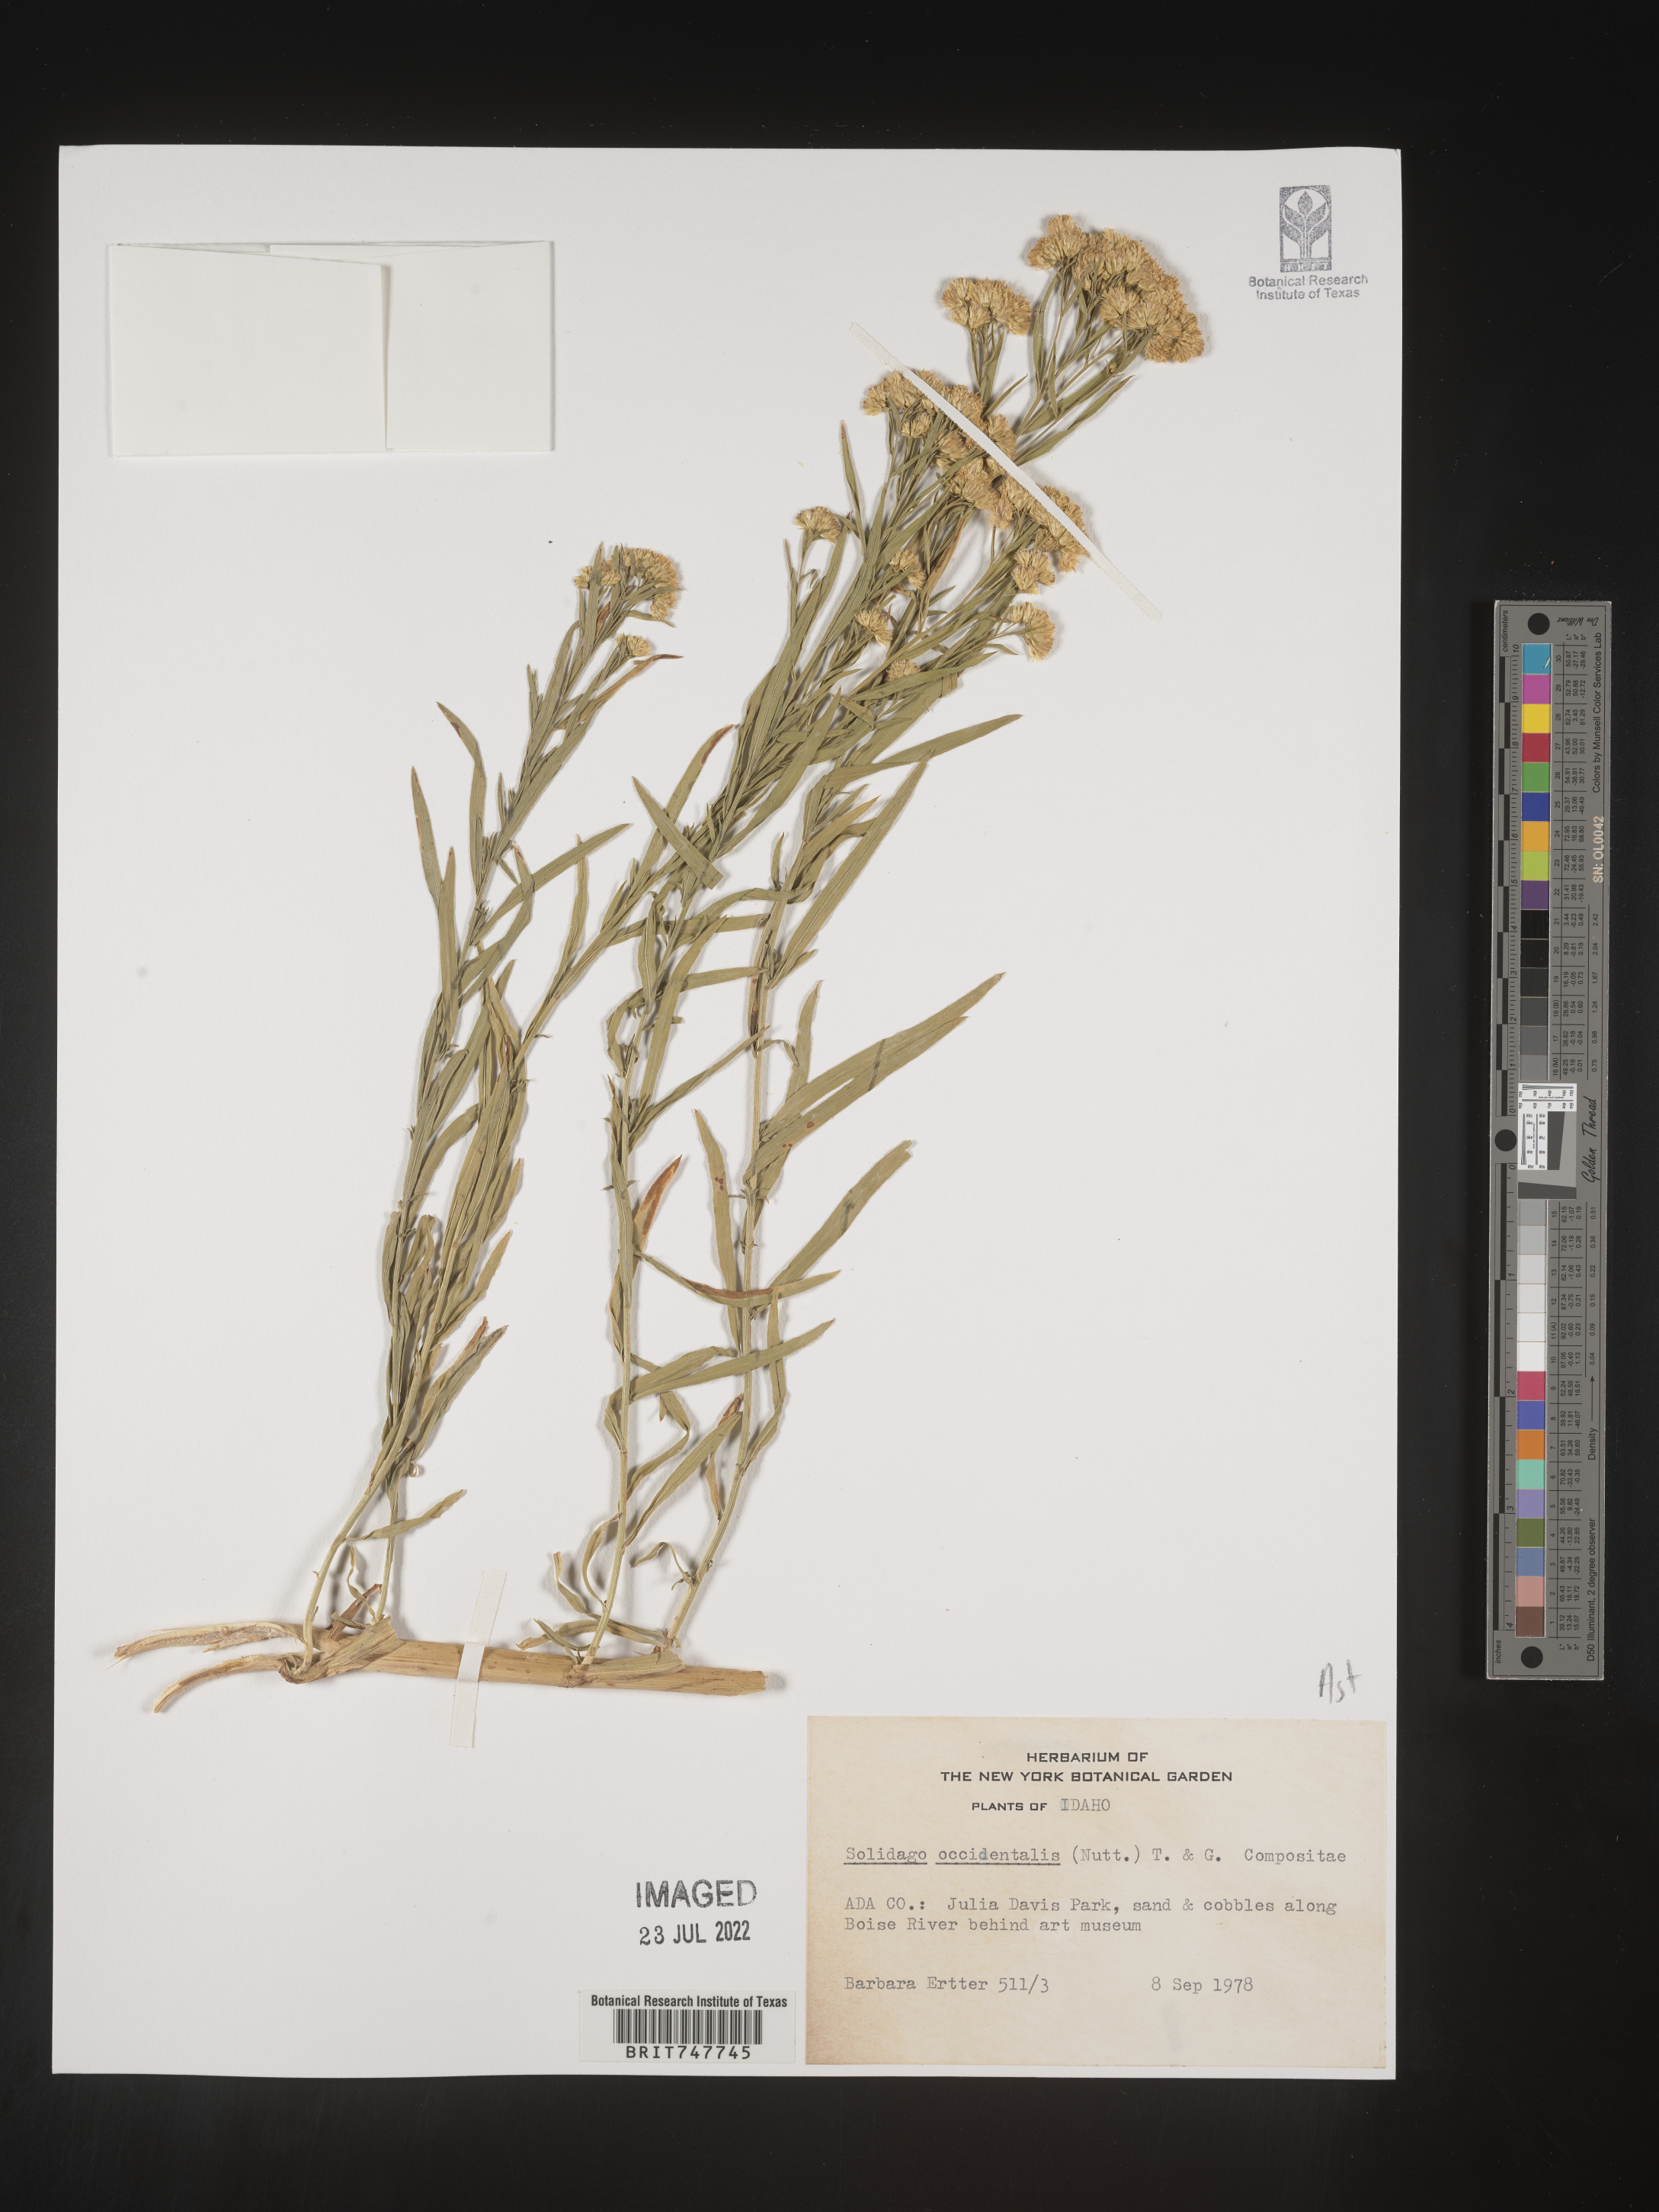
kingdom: Plantae
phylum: Tracheophyta
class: Magnoliopsida
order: Asterales
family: Asteraceae
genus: Euthamia
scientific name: Euthamia occidentalis
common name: Western goldentop
